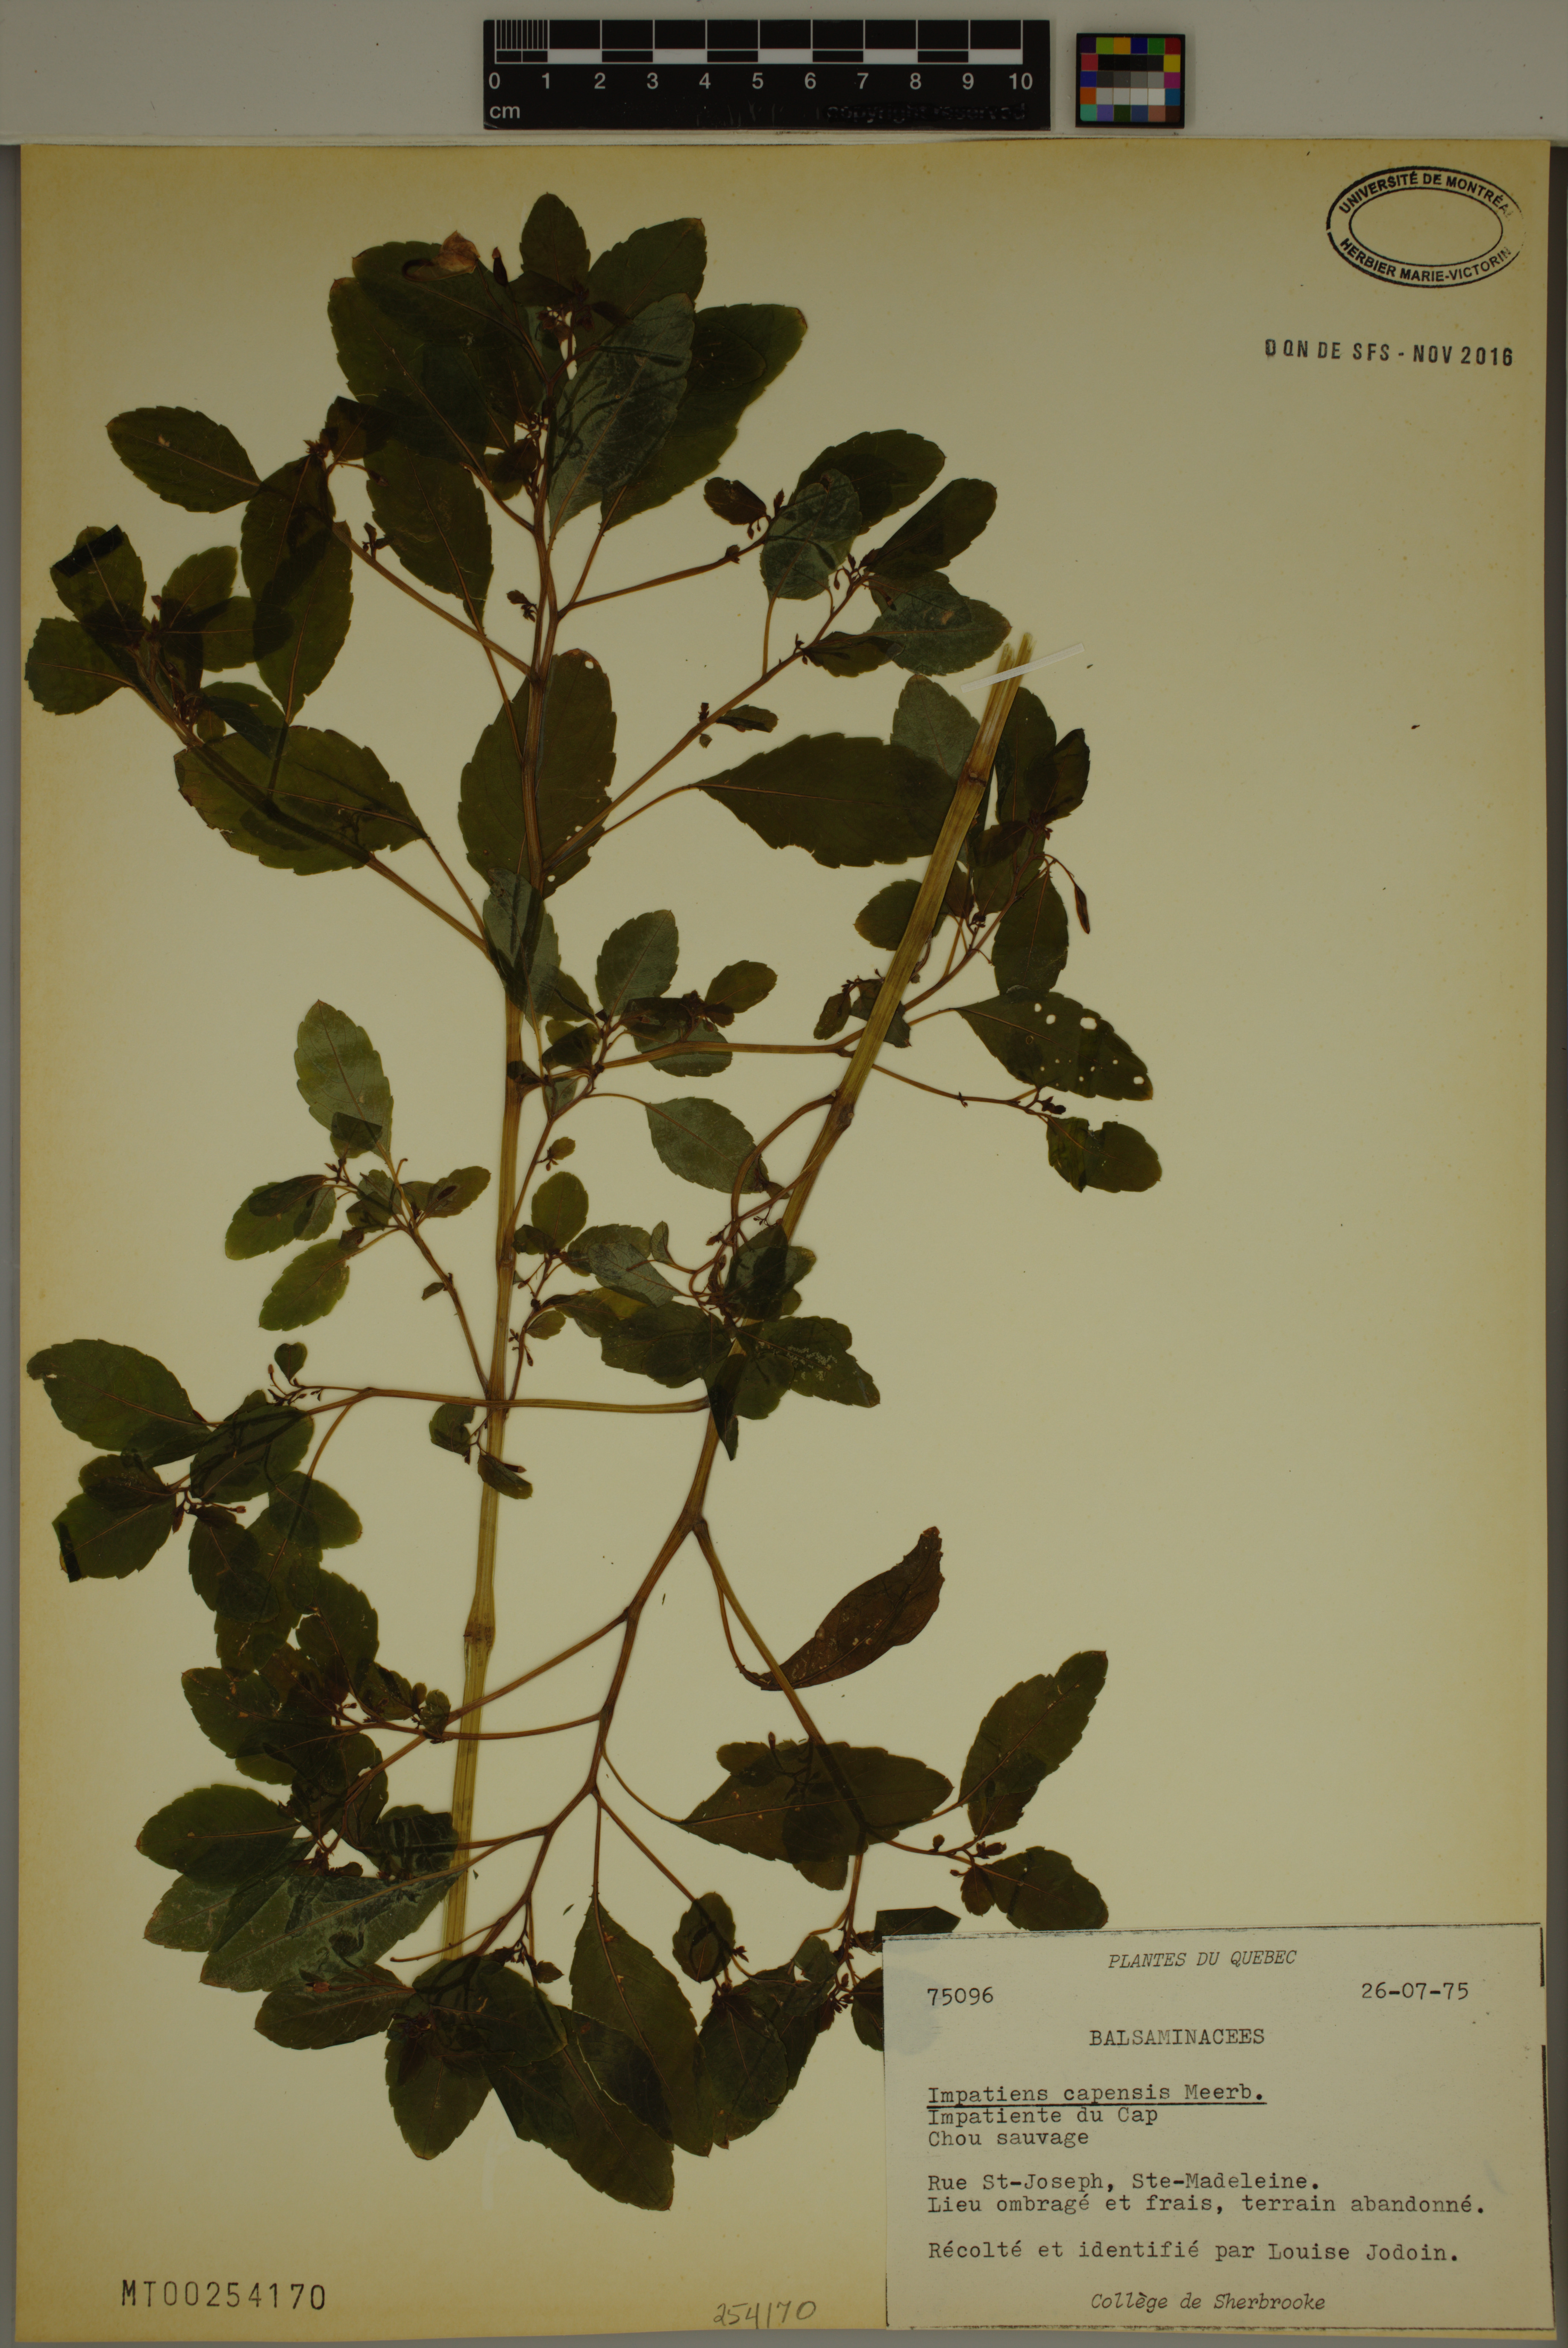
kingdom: Plantae
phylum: Tracheophyta
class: Magnoliopsida
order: Ericales
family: Balsaminaceae
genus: Impatiens
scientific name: Impatiens capensis
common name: Orange balsam
